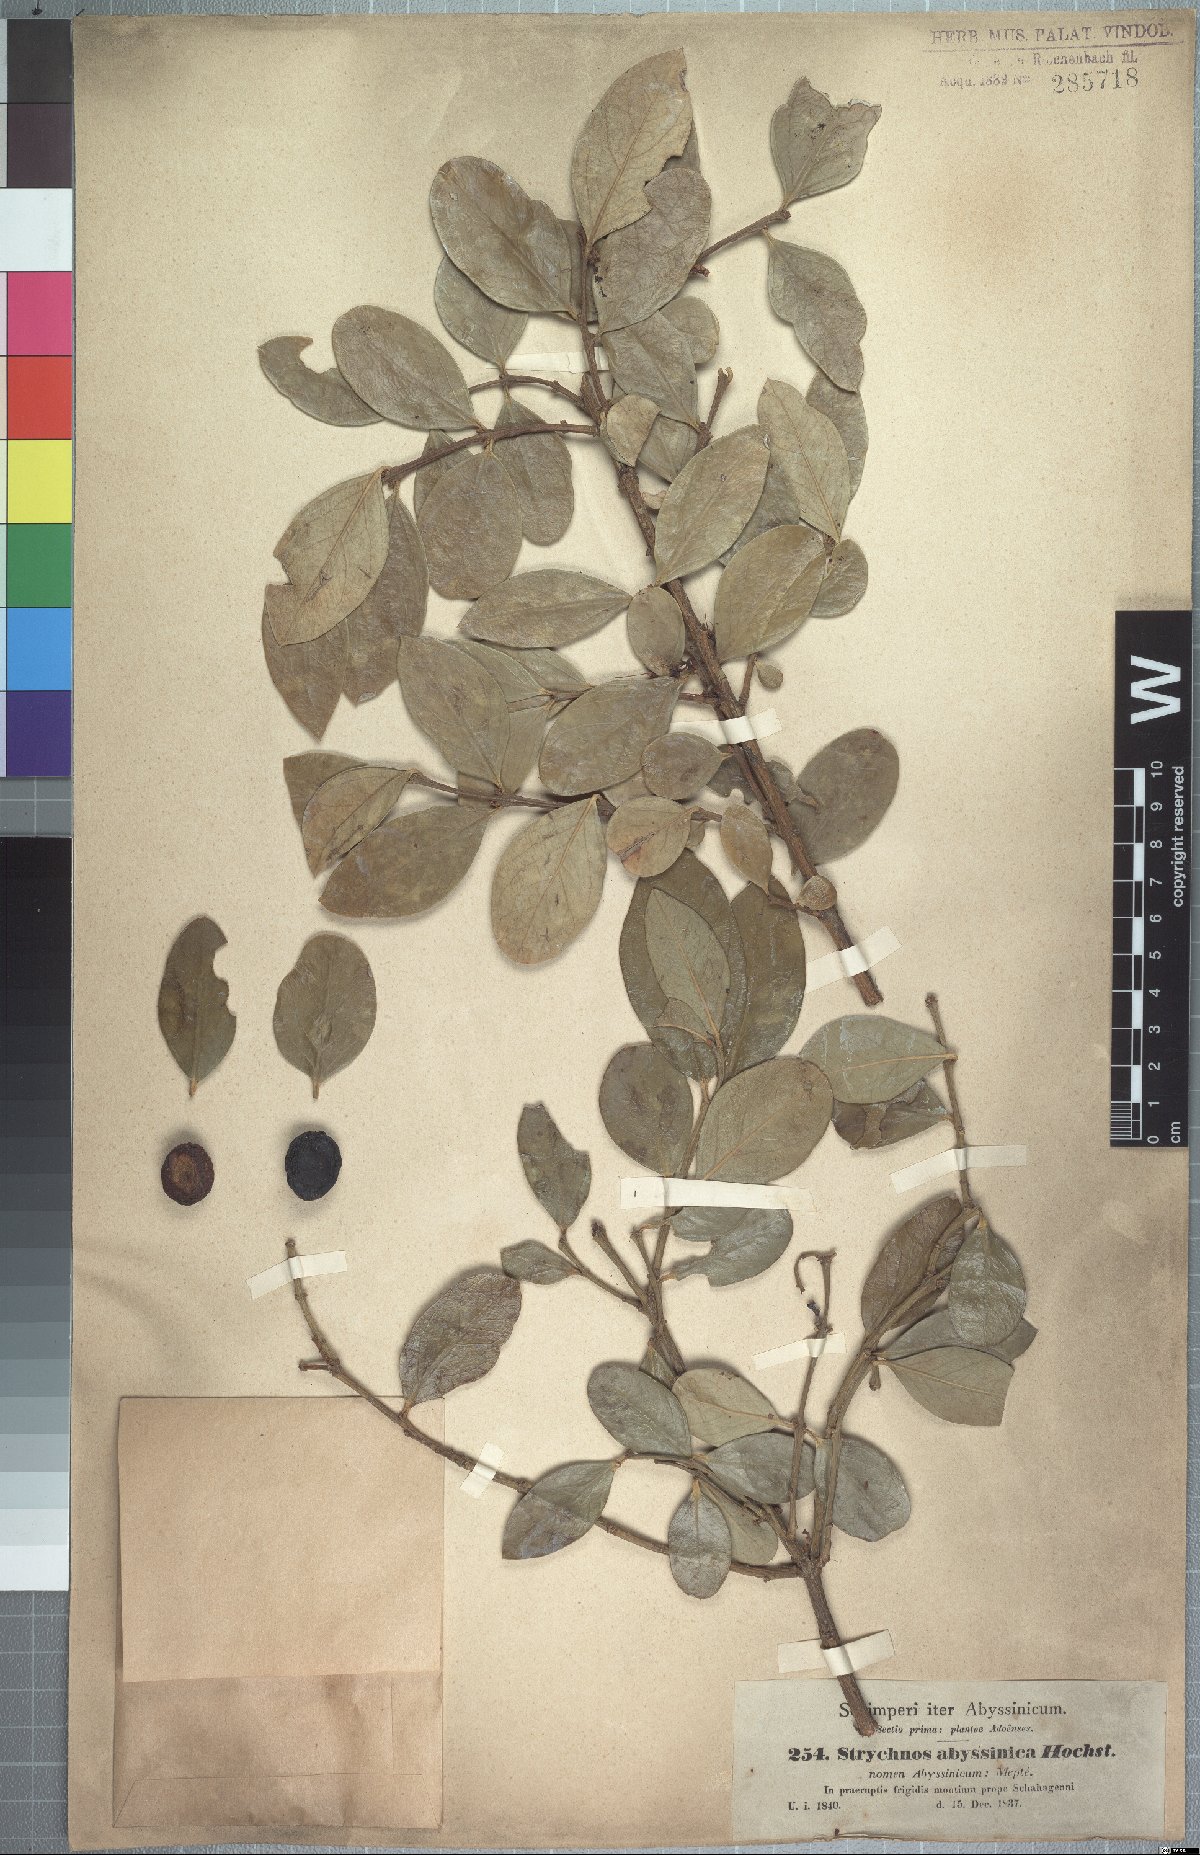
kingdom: Plantae
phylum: Tracheophyta
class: Magnoliopsida
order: Gentianales
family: Apocynaceae
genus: Acokanthera
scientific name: Acokanthera schimperi
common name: Arrow-poison-tree
